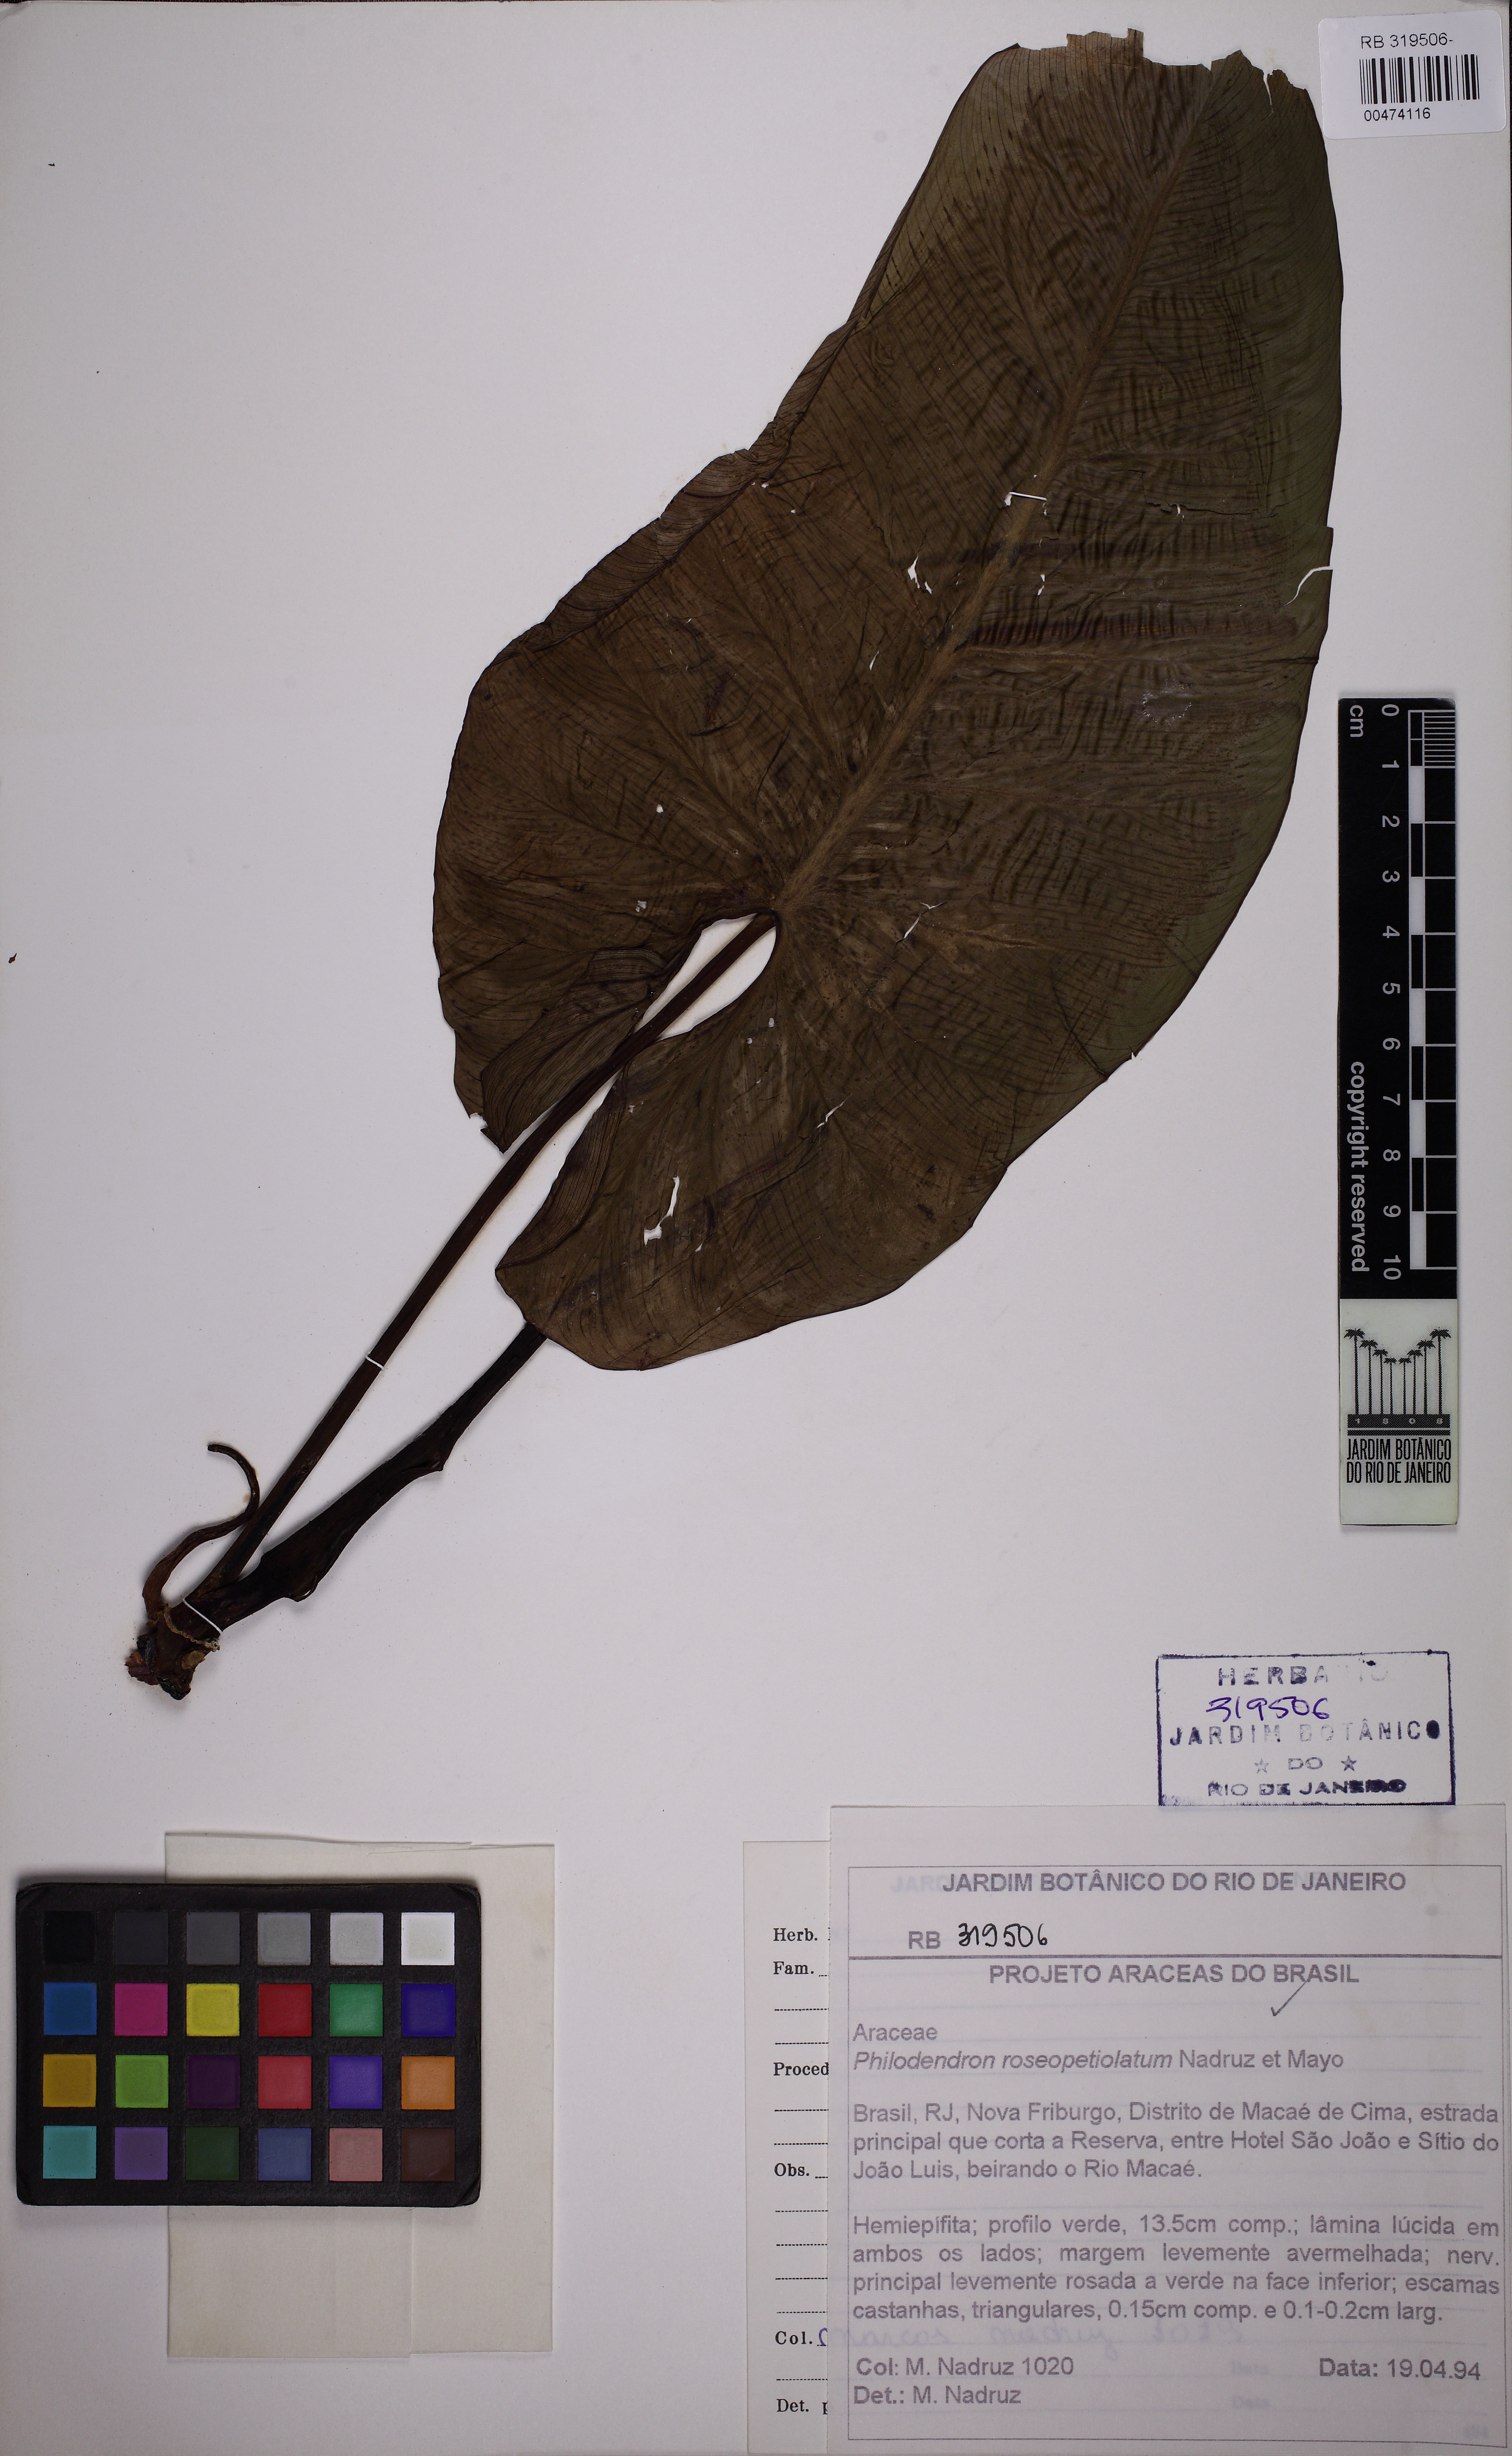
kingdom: Plantae
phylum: Tracheophyta
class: Liliopsida
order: Alismatales
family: Araceae
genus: Philodendron
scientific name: Philodendron roseocataphyllum
